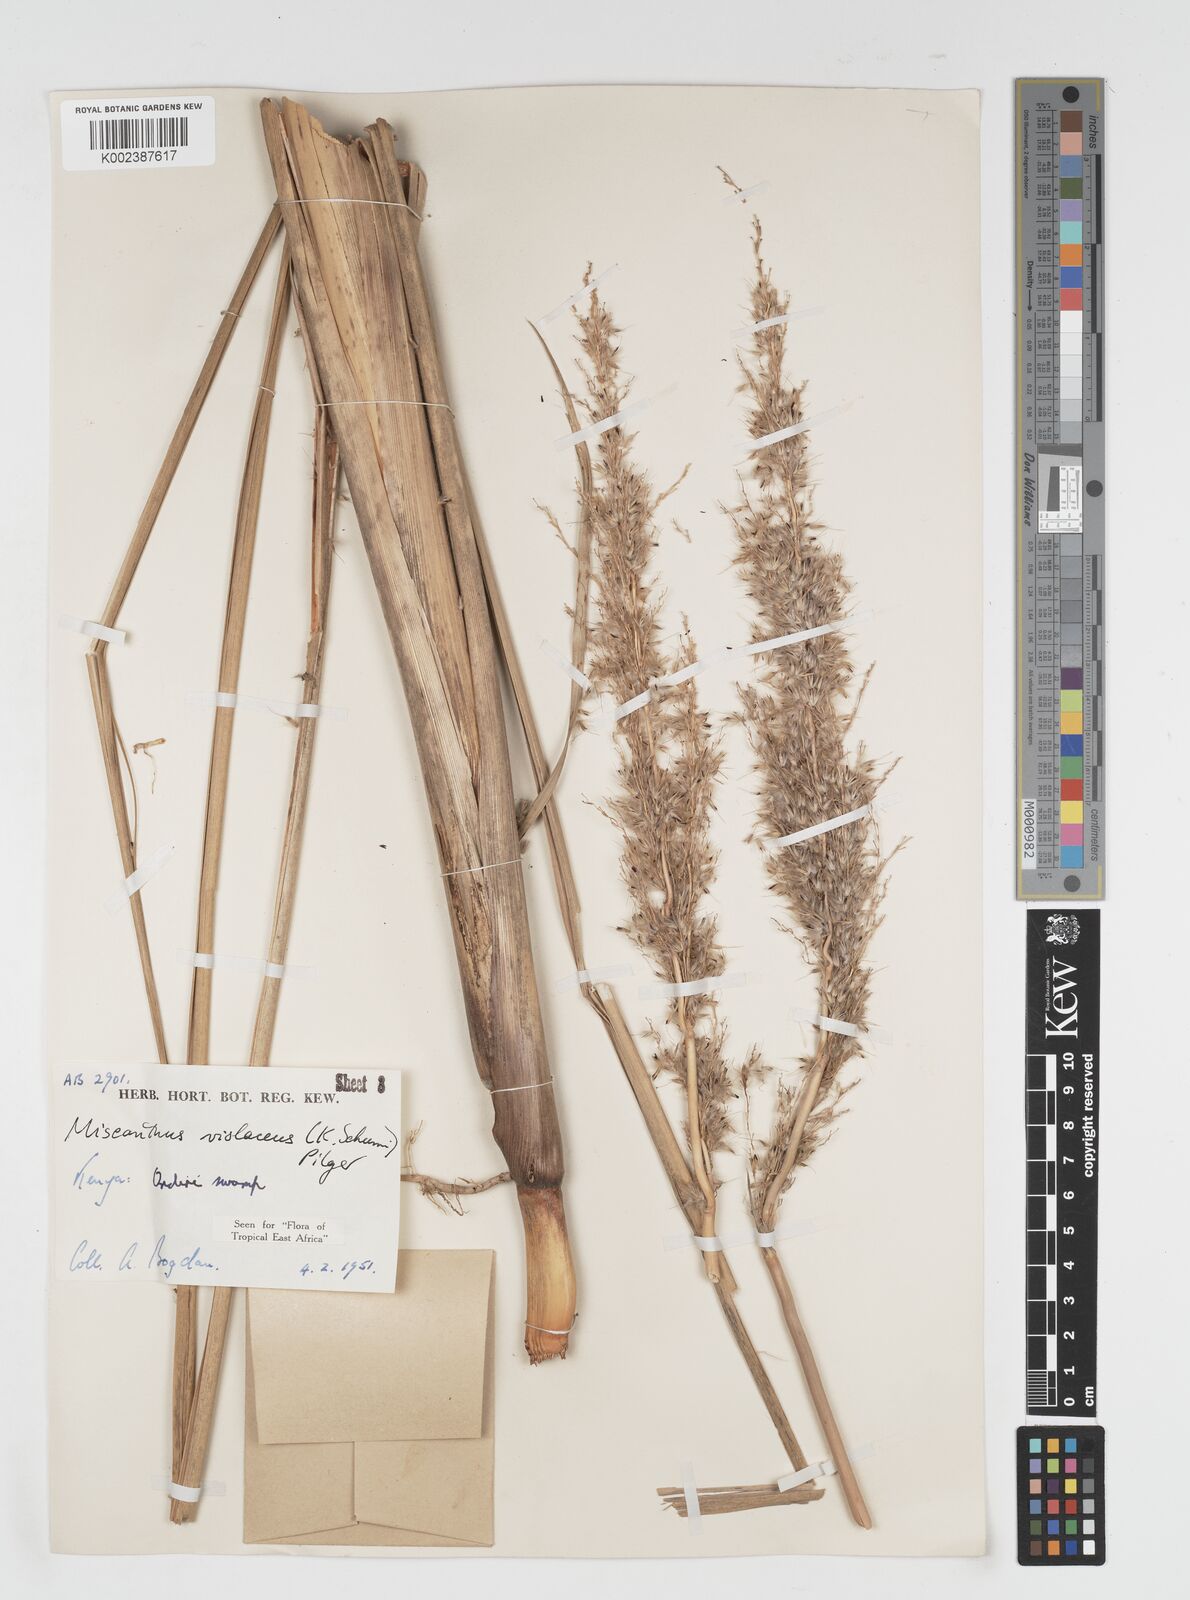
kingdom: Plantae
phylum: Tracheophyta
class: Liliopsida
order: Poales
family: Poaceae
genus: Miscanthidium
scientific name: Miscanthidium violaceum
